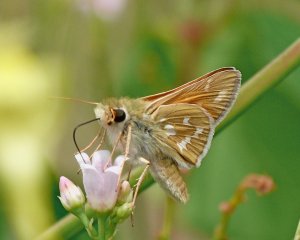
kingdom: Animalia
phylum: Arthropoda
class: Insecta
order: Lepidoptera
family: Hesperiidae
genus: Hesperia
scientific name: Hesperia comma
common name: Western Branded Skipper
